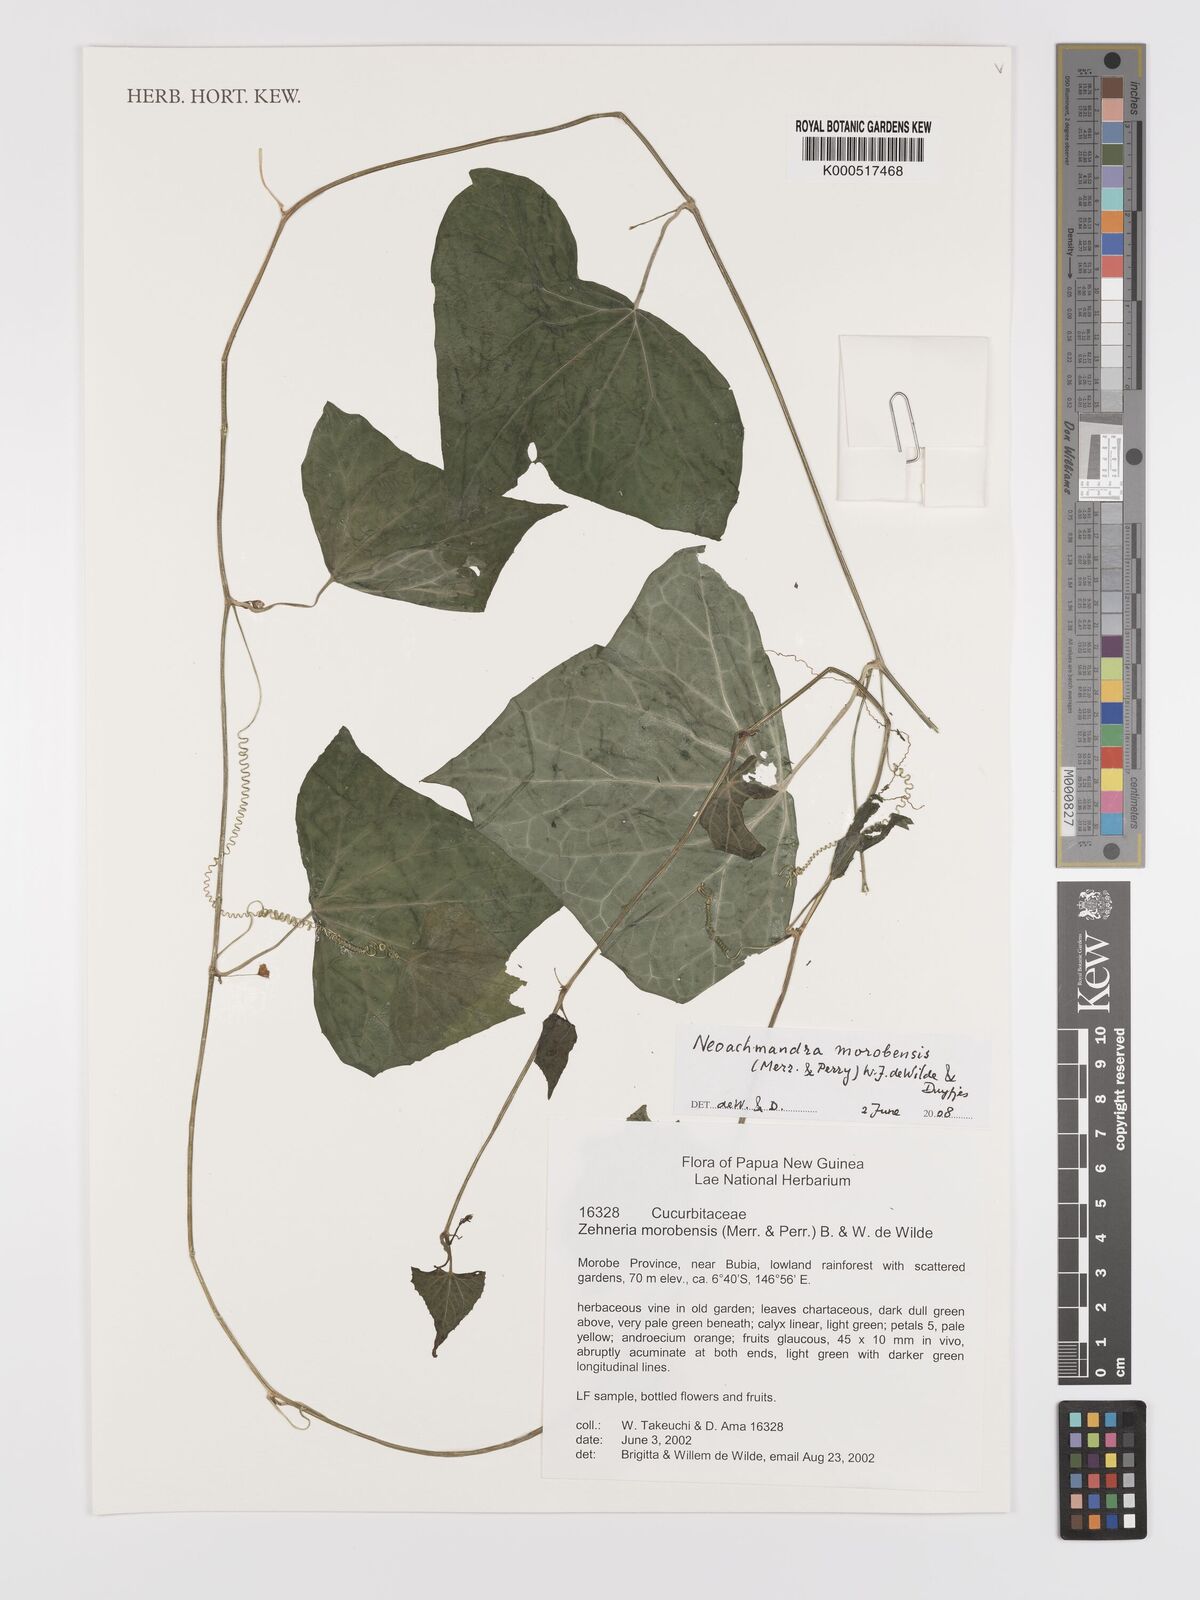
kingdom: Plantae
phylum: Tracheophyta
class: Magnoliopsida
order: Cucurbitales
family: Cucurbitaceae
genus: Zehneria
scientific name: Zehneria morobensis
